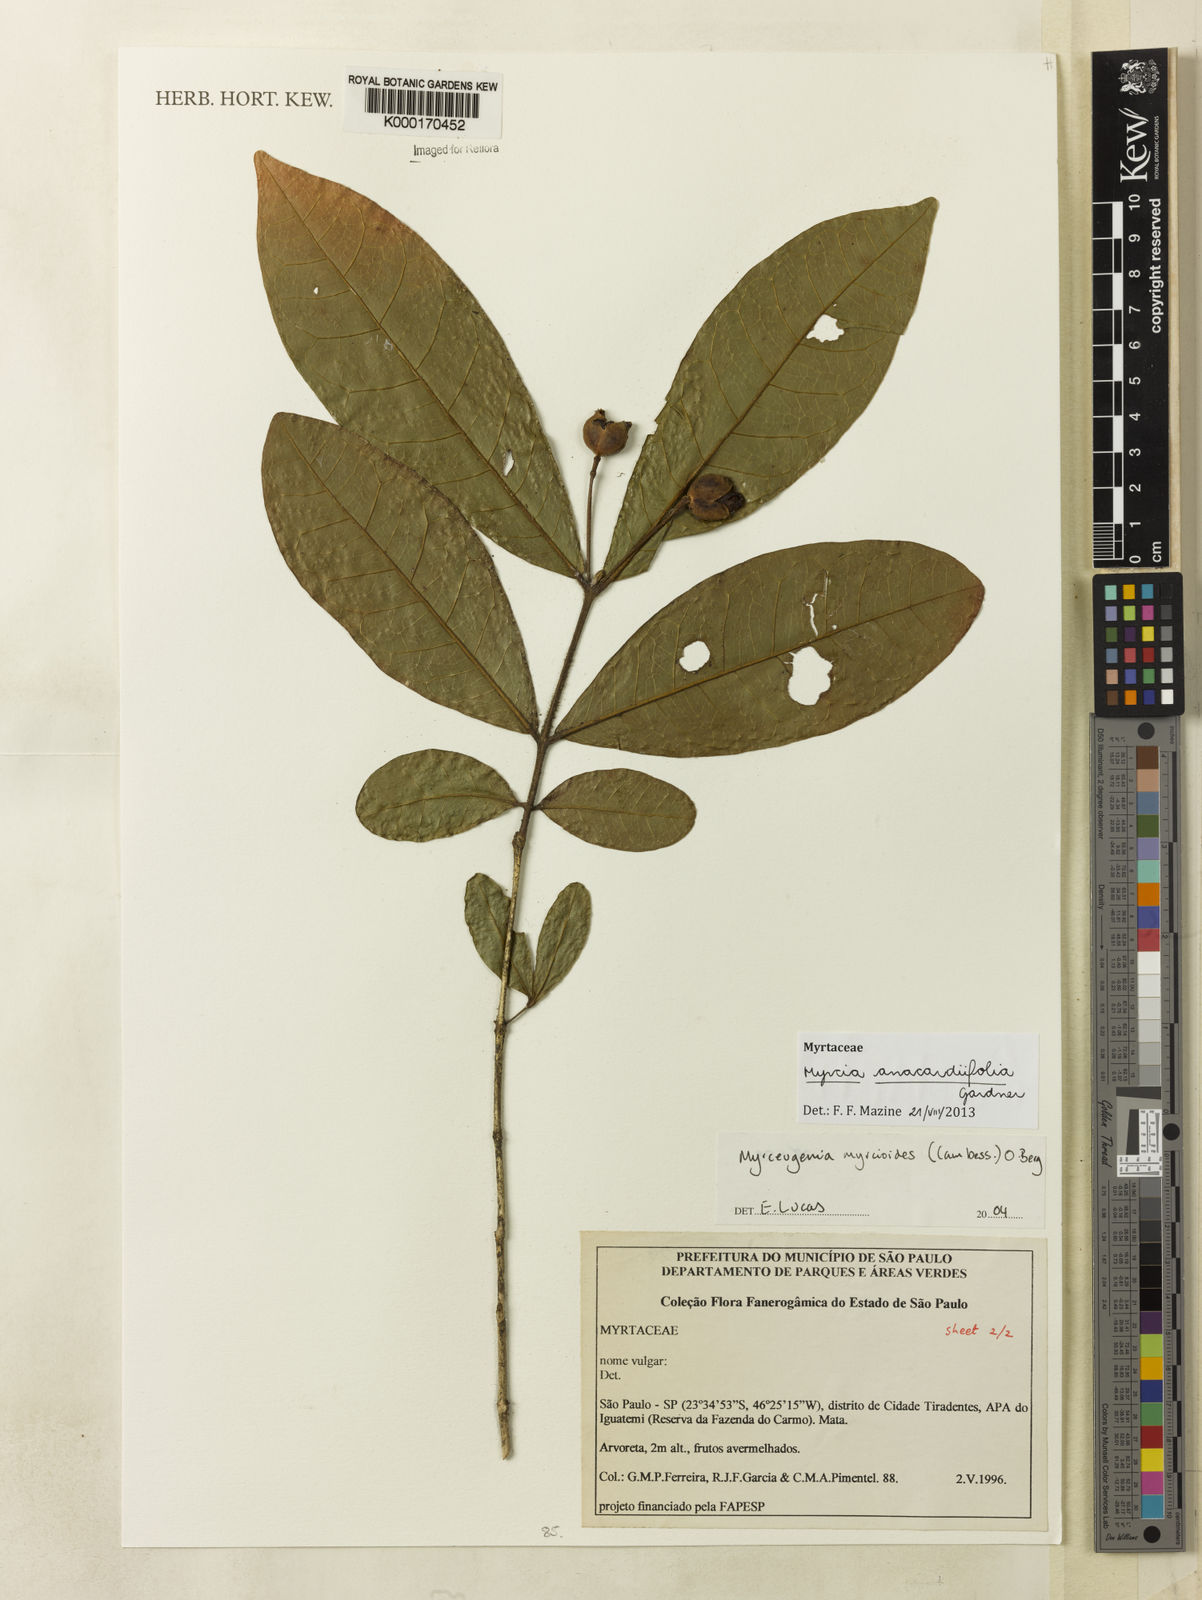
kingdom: Plantae
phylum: Tracheophyta
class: Magnoliopsida
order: Myrtales
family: Myrtaceae
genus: Myrcia
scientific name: Myrcia anacardiifolia
